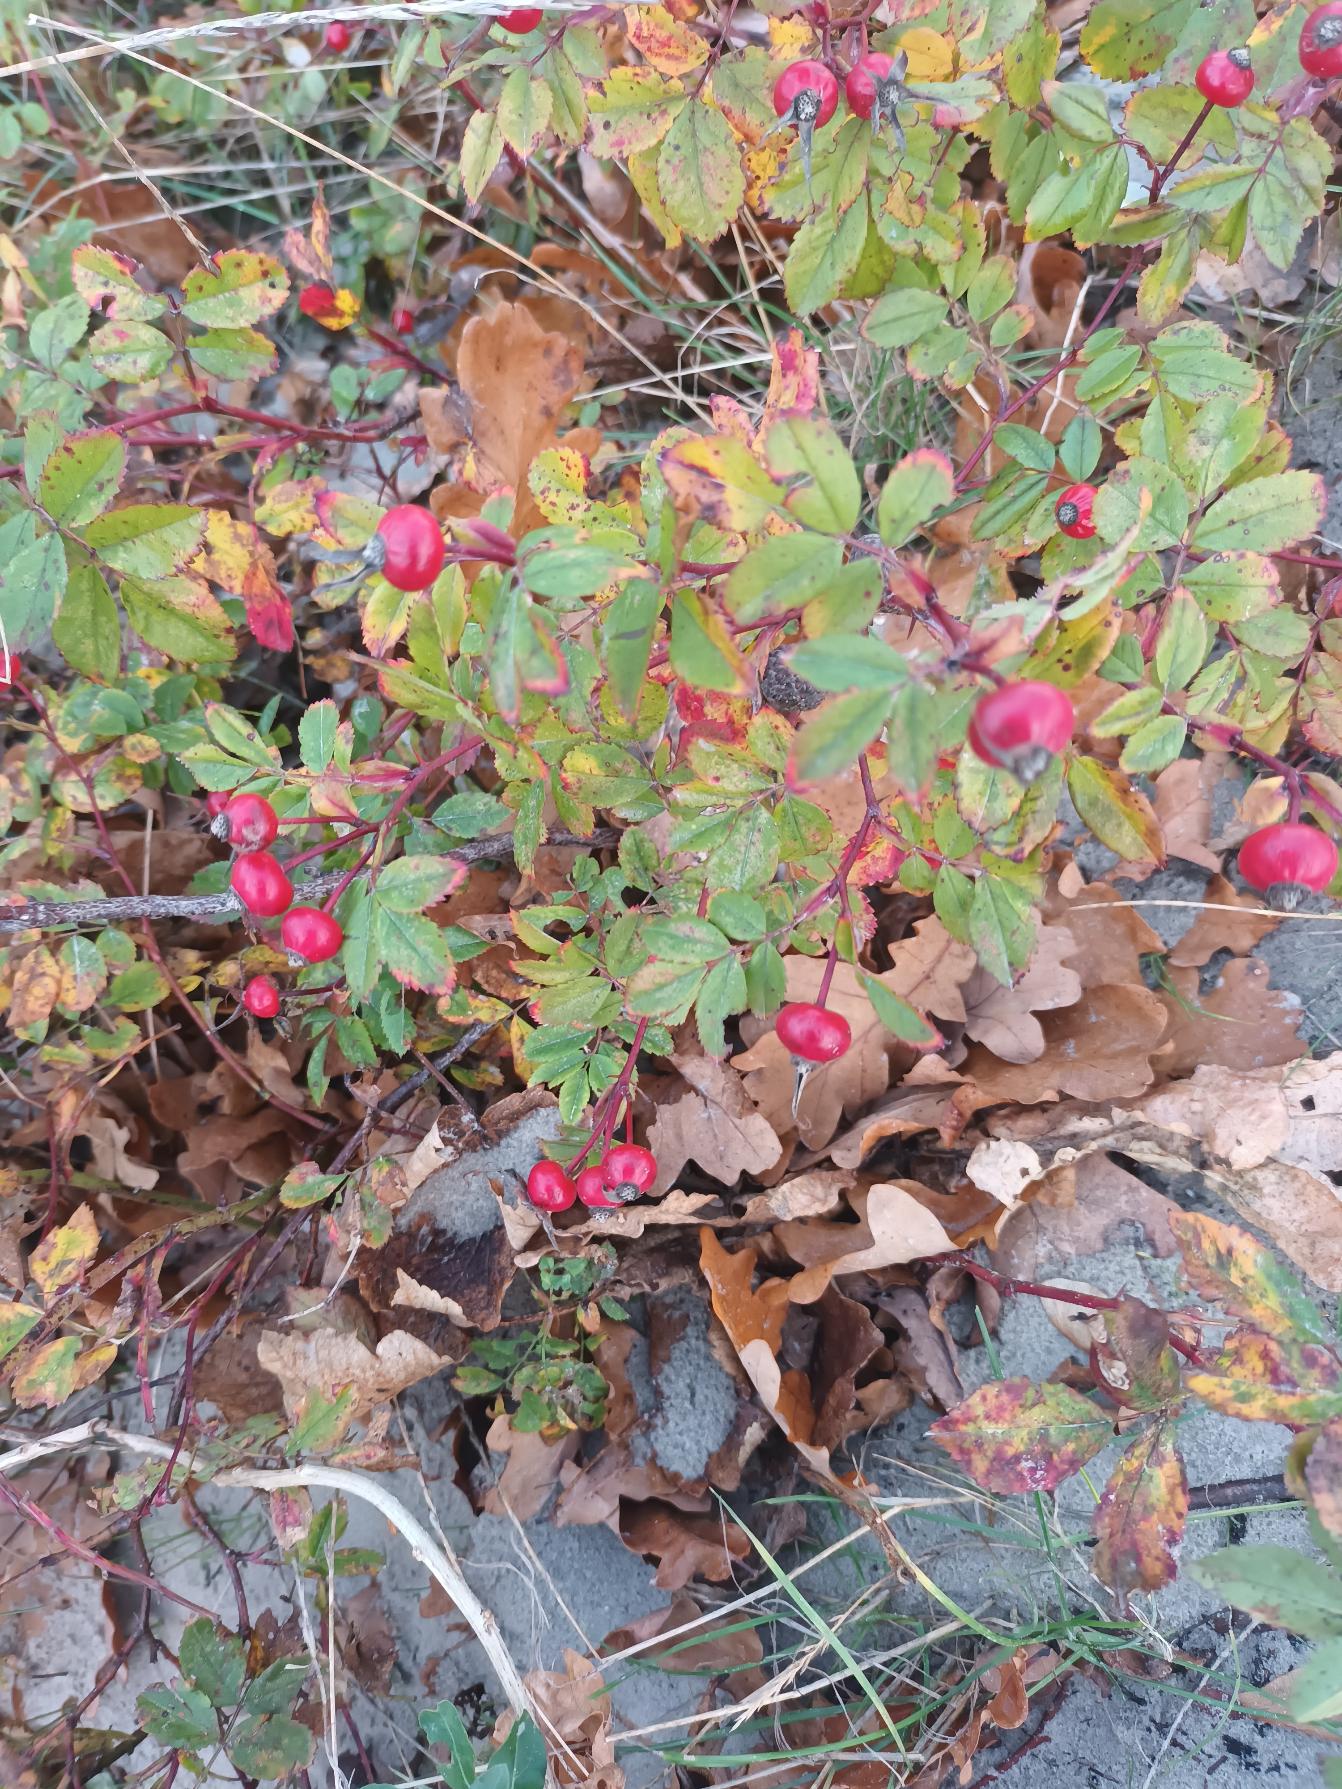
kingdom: Plantae
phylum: Tracheophyta
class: Magnoliopsida
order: Rosales
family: Rosaceae
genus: Rosa
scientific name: Rosa carolina
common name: Glansbladet rose
